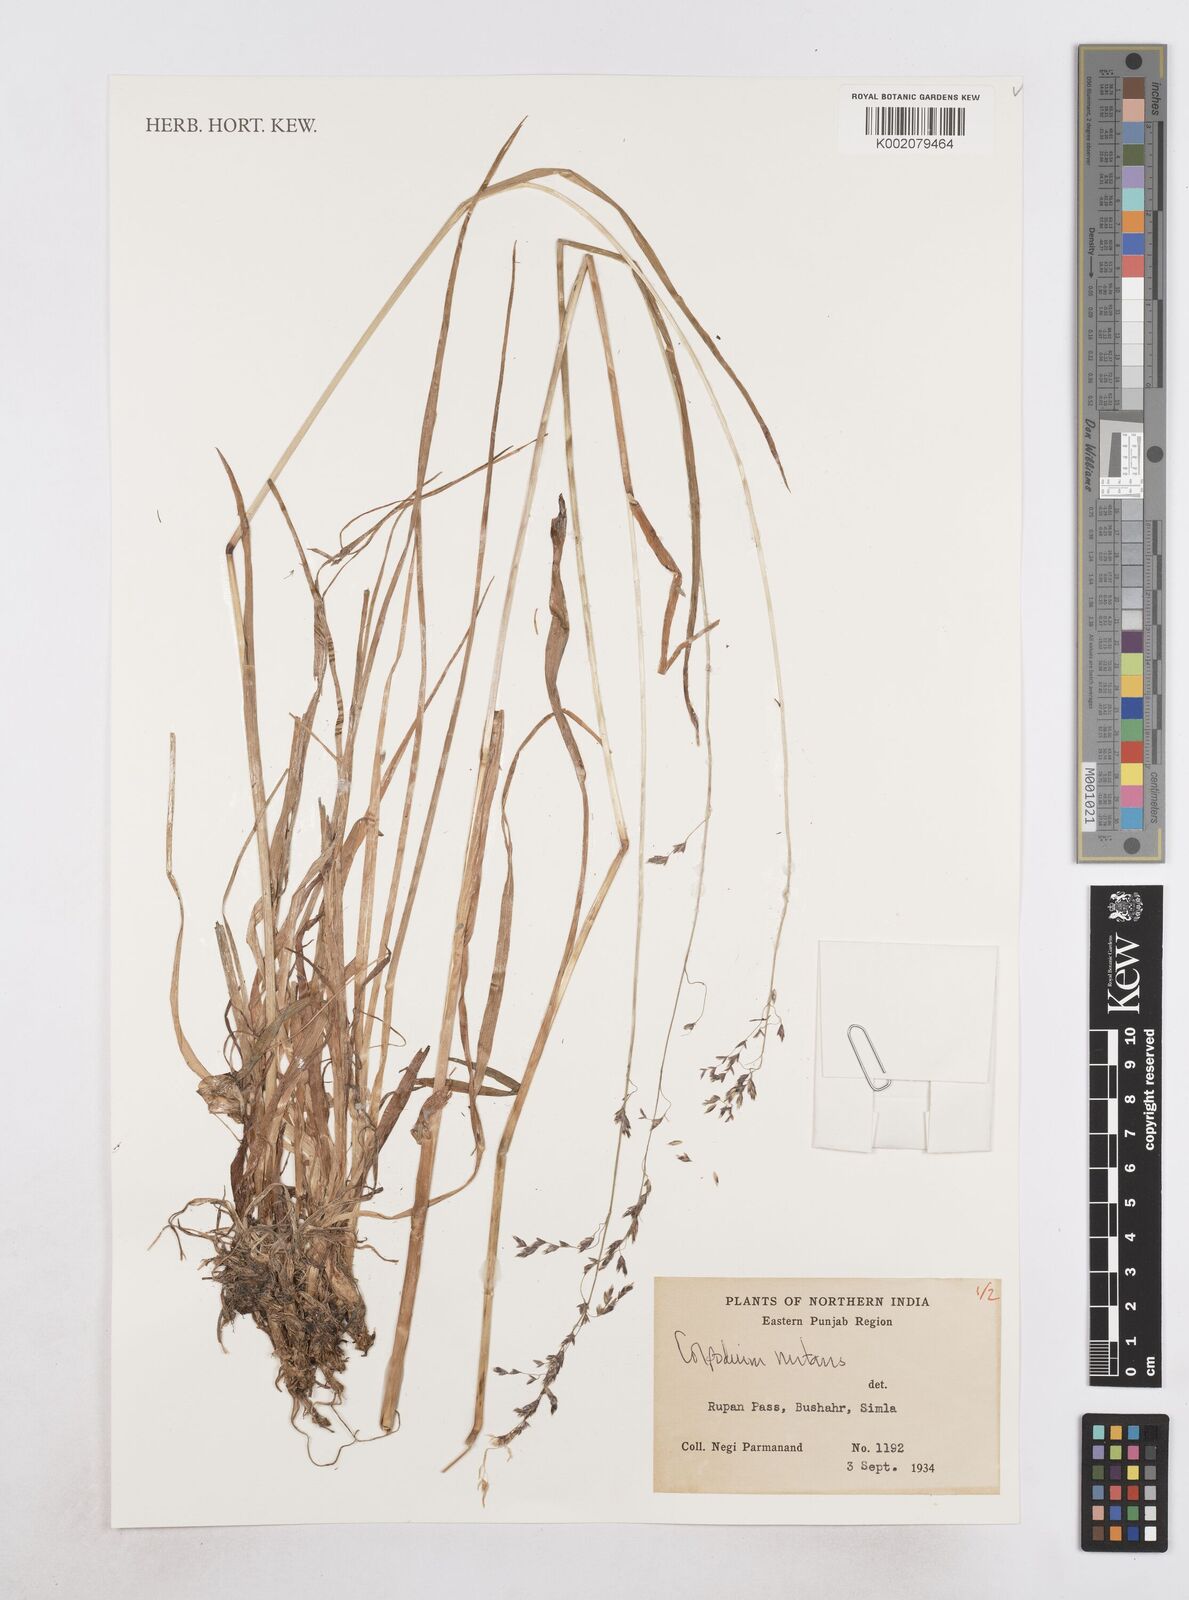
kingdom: Plantae
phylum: Tracheophyta
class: Liliopsida
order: Poales
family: Poaceae
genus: Hyalopoa
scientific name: Hyalopoa nutans
